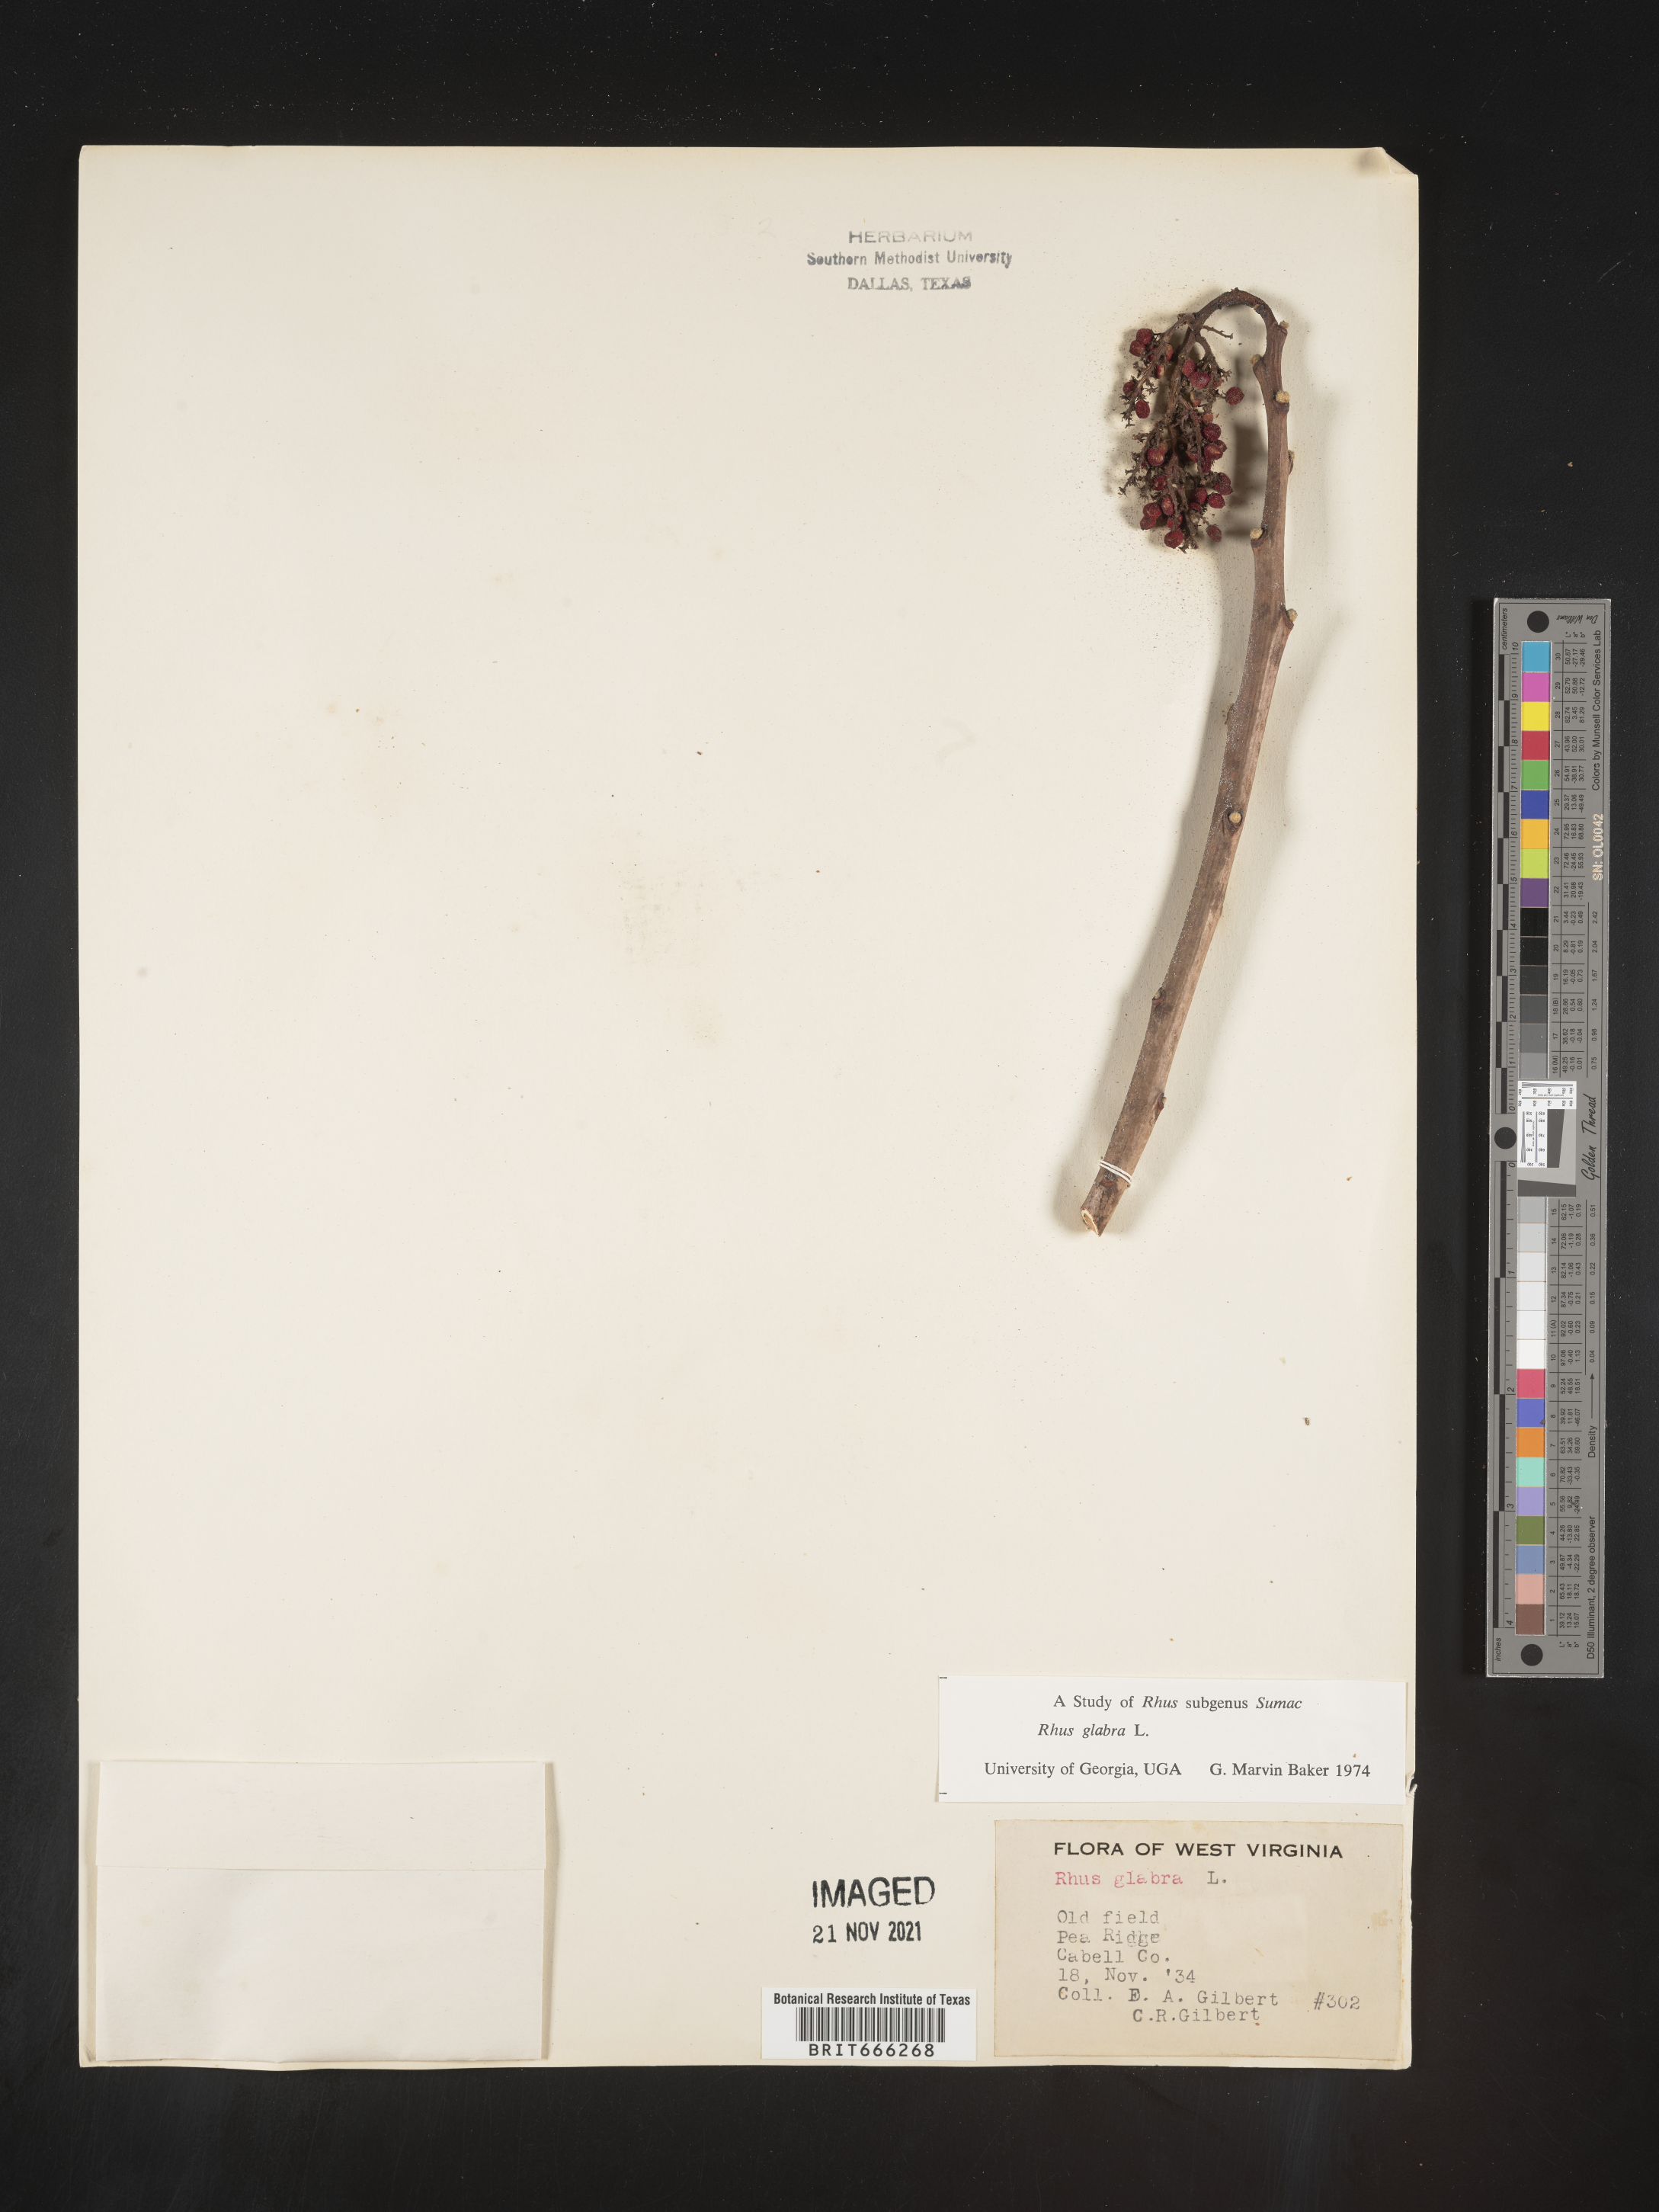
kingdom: Plantae
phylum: Tracheophyta
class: Magnoliopsida
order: Sapindales
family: Anacardiaceae
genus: Rhus
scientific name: Rhus glabra
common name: Scarlet sumac
